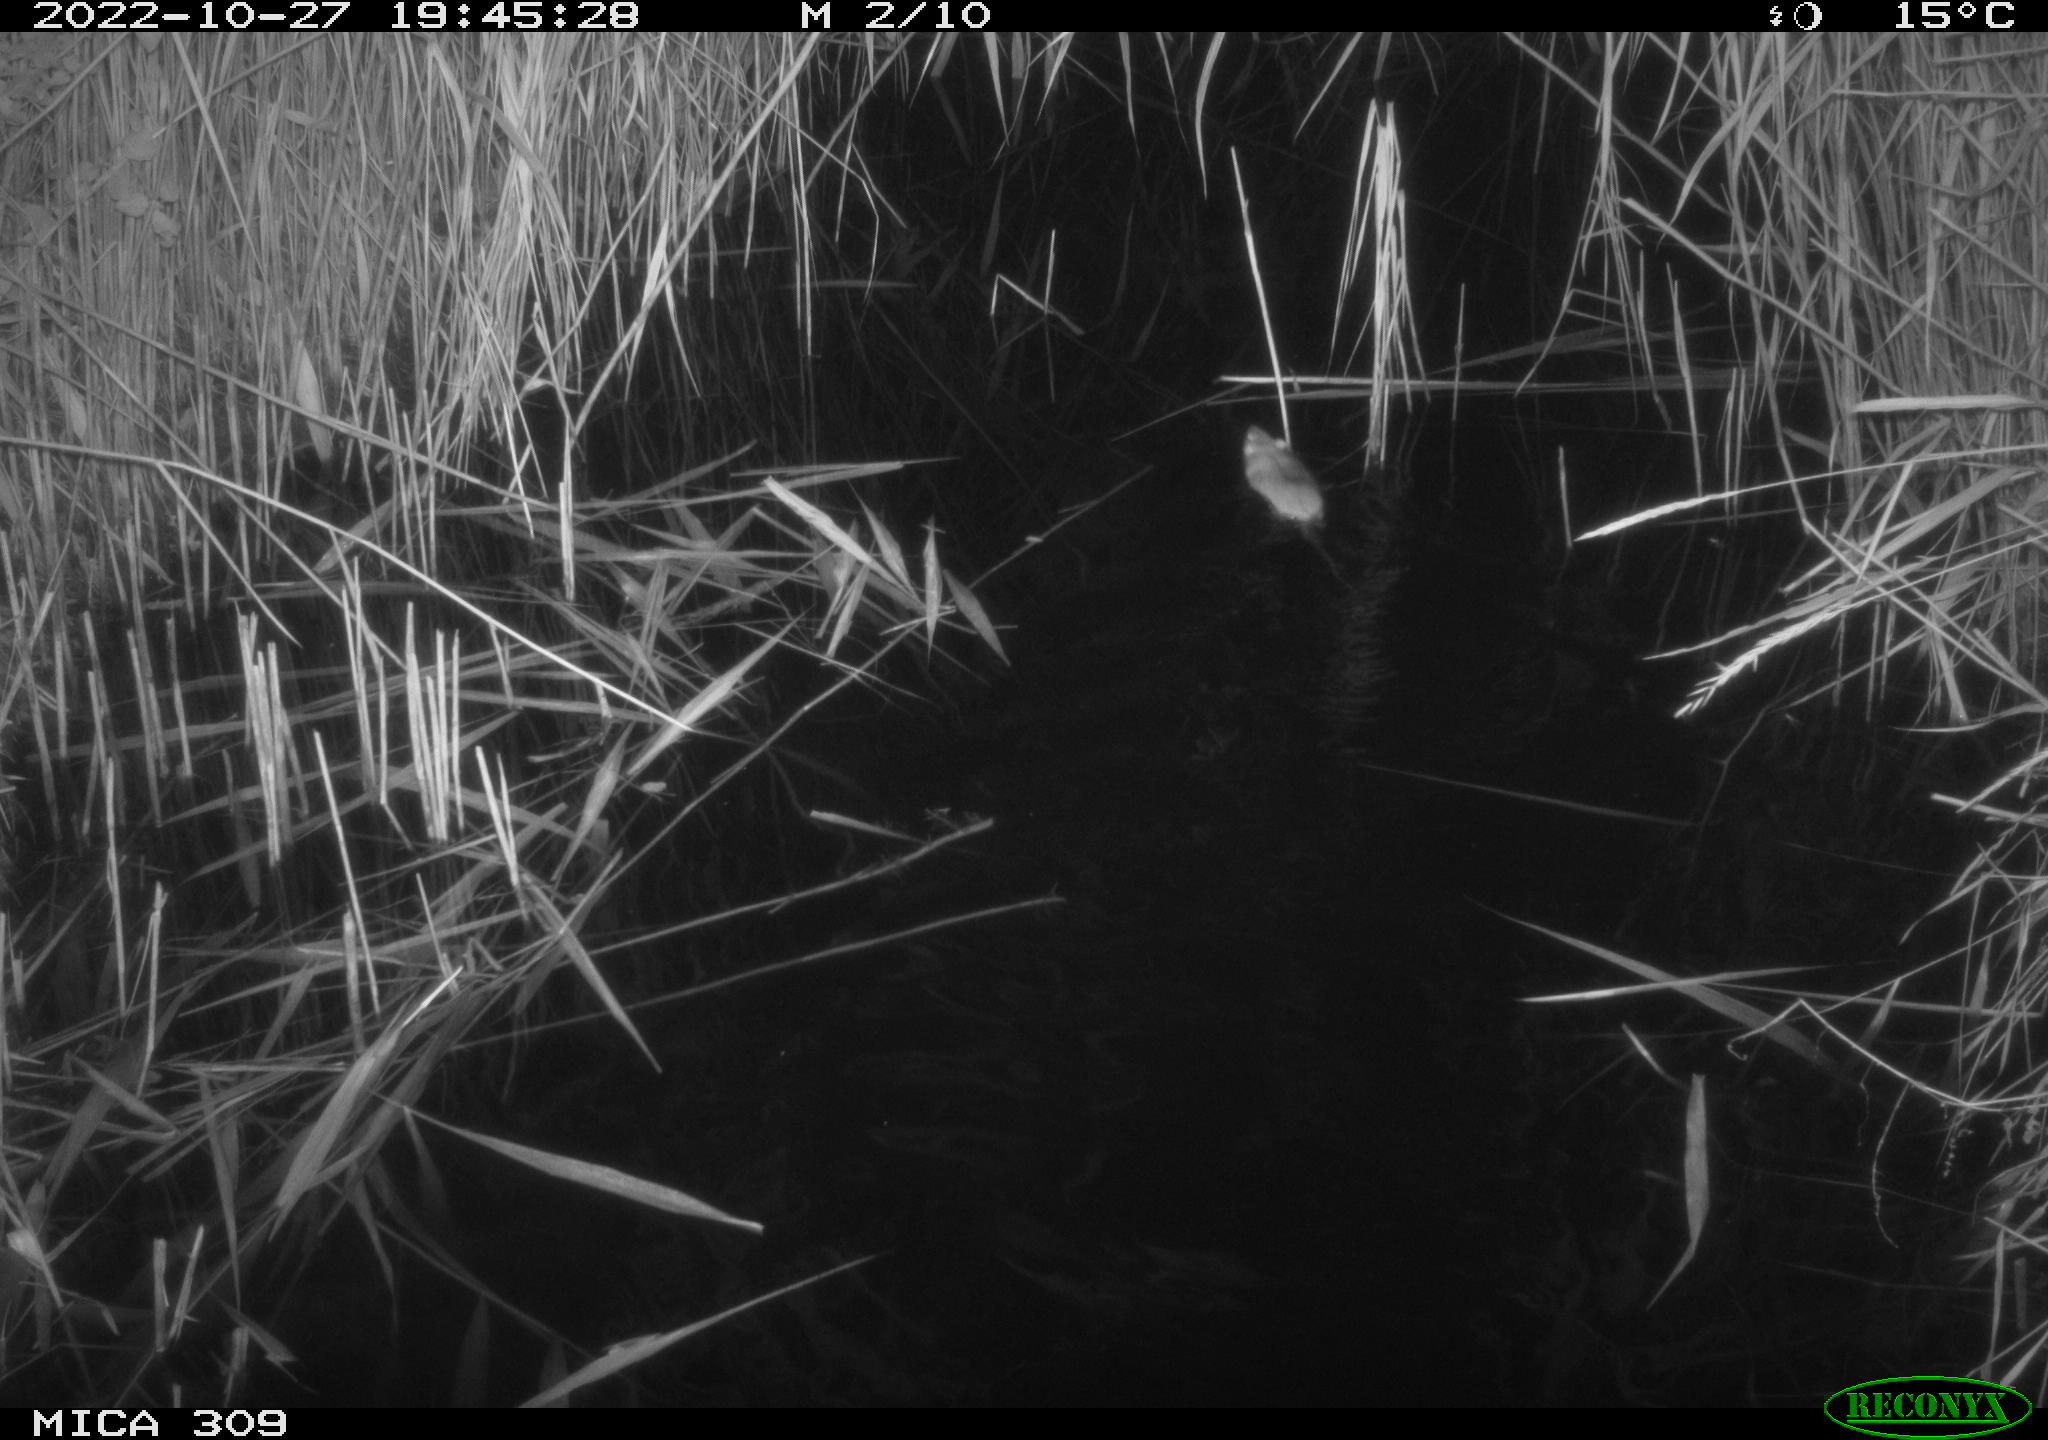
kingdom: Animalia
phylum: Chordata
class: Mammalia
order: Rodentia
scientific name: Rodentia
